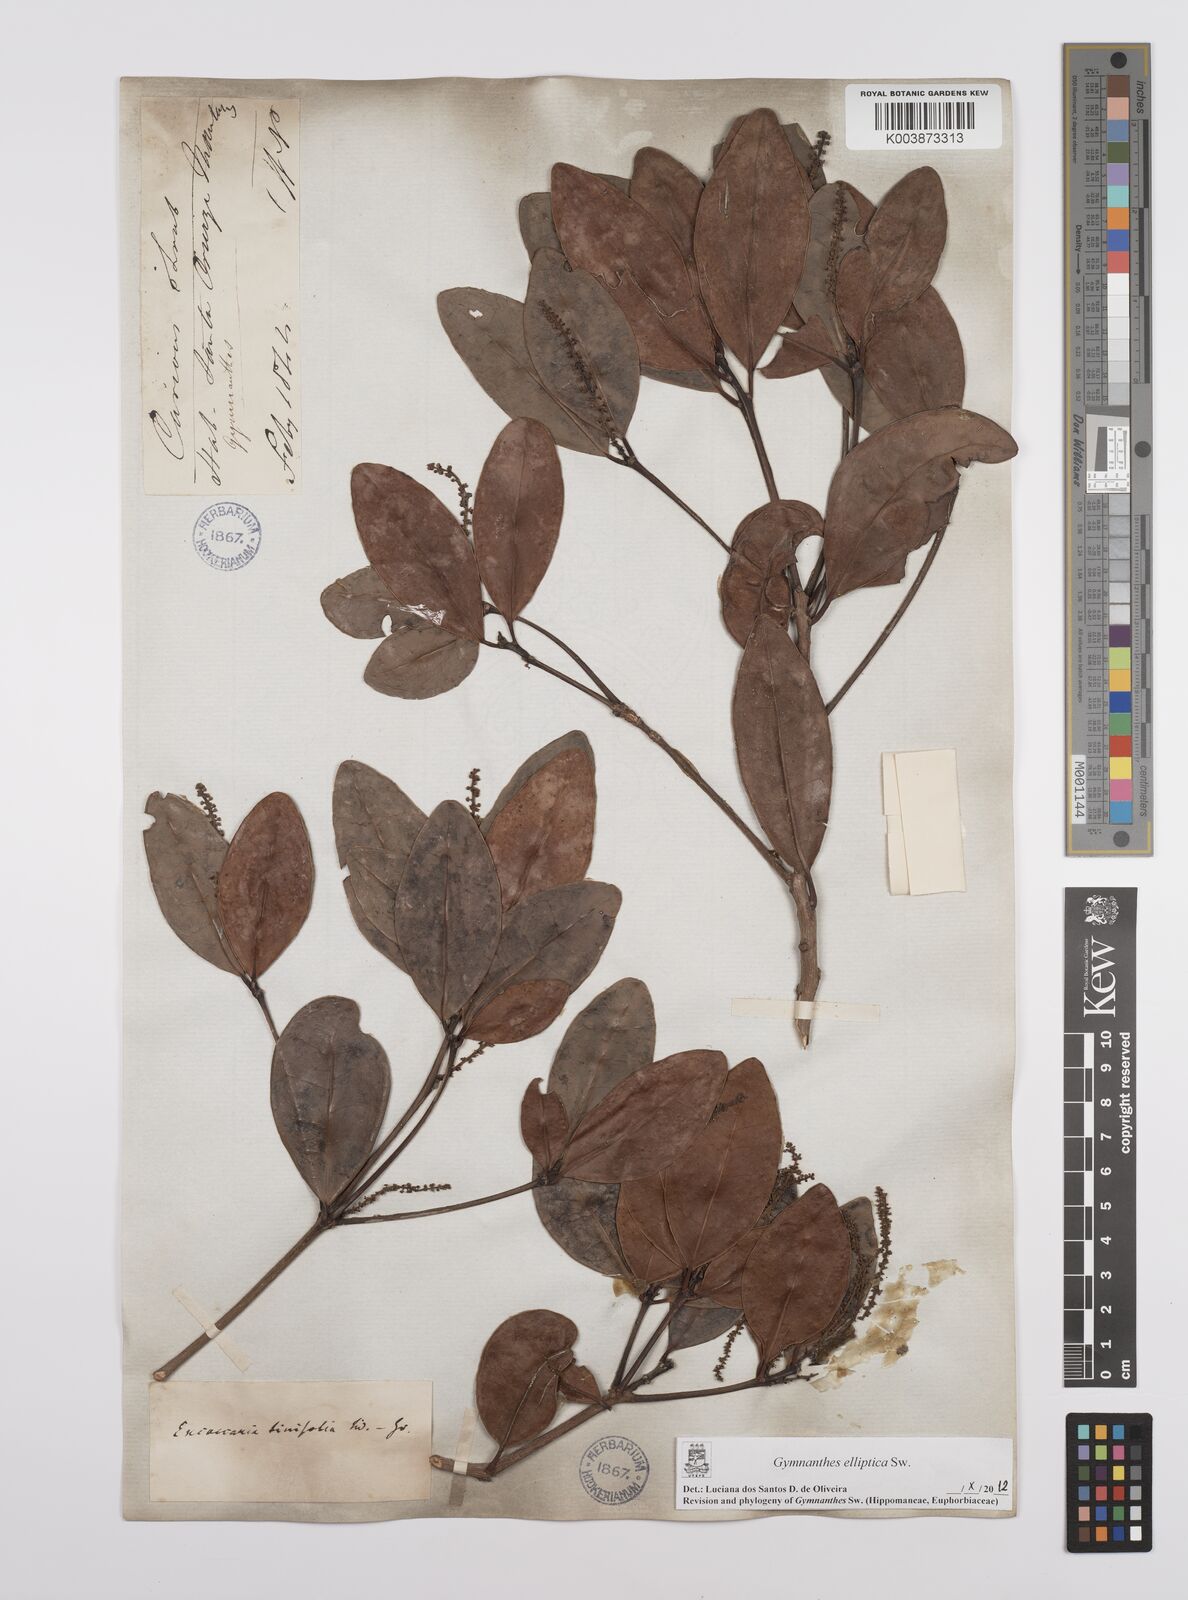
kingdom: Plantae
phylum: Tracheophyta
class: Magnoliopsida
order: Malpighiales
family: Euphorbiaceae
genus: Dendrocousinsia
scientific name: Dendrocousinsia elliptica
